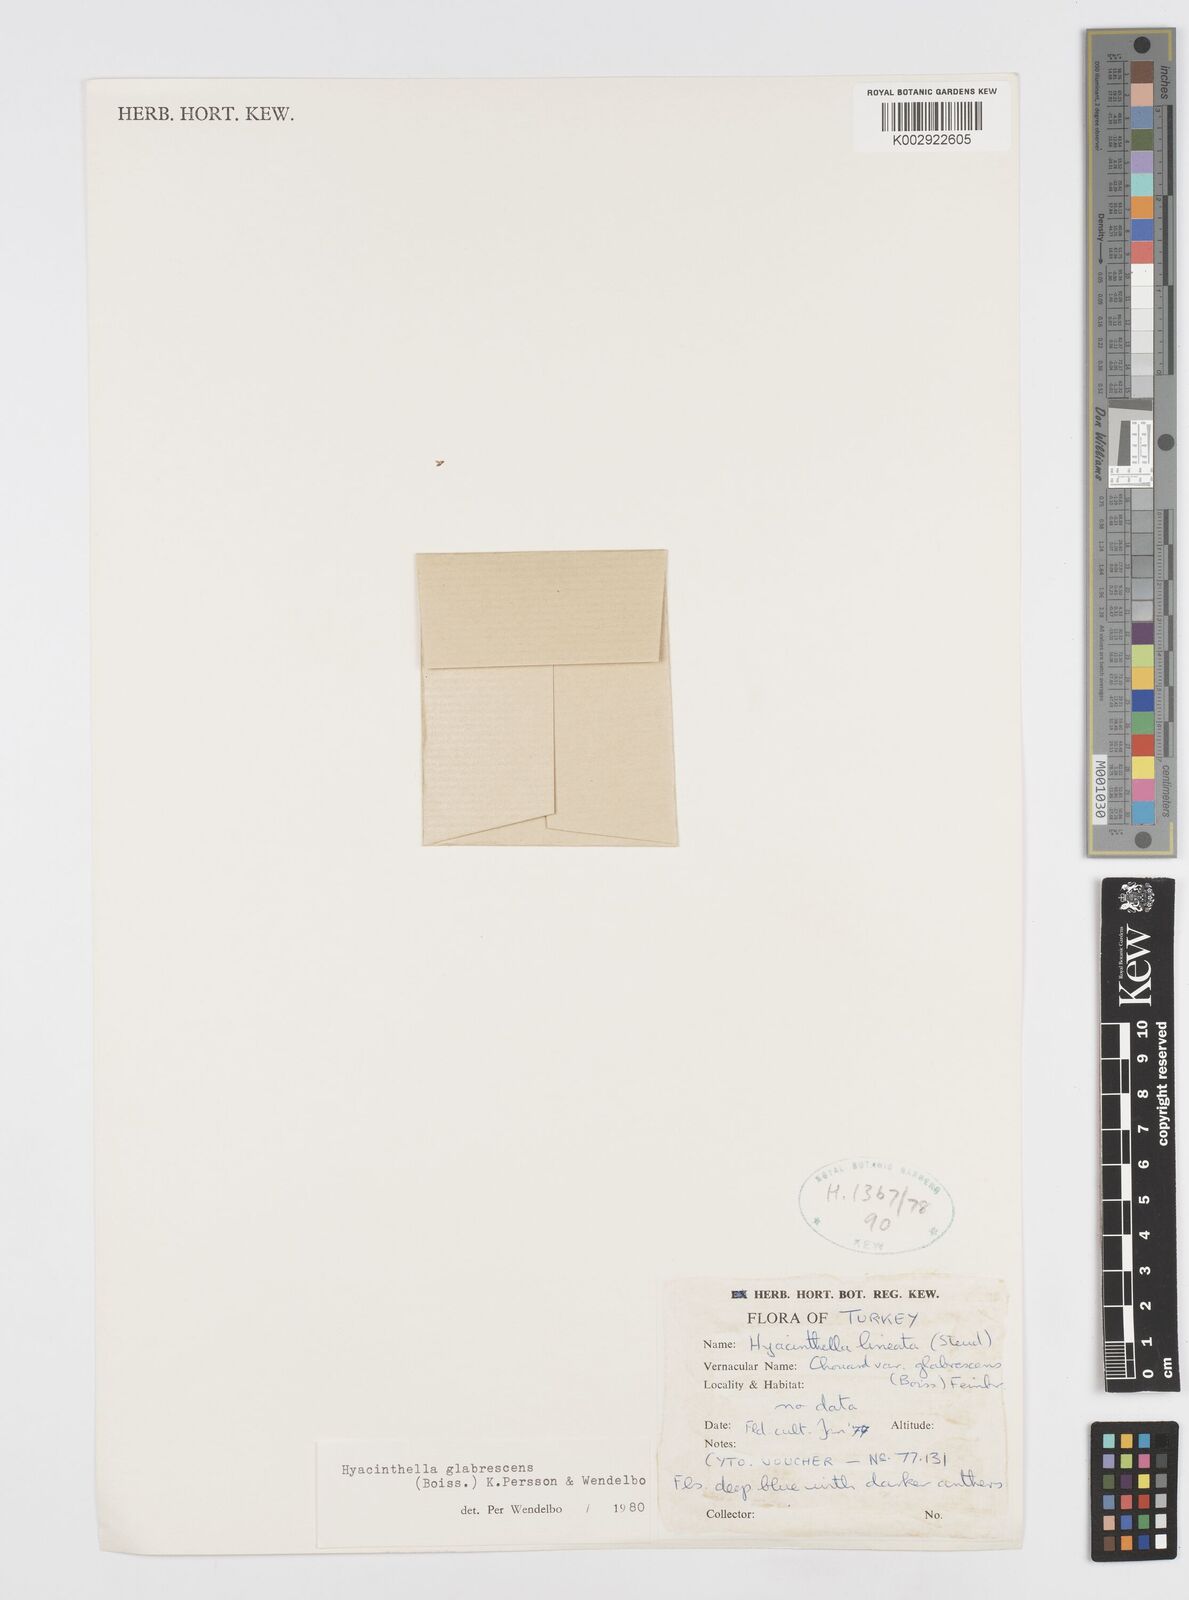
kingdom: Plantae
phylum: Tracheophyta
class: Liliopsida
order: Asparagales
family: Asparagaceae
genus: Hyacinthella
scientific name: Hyacinthella glabrescens
